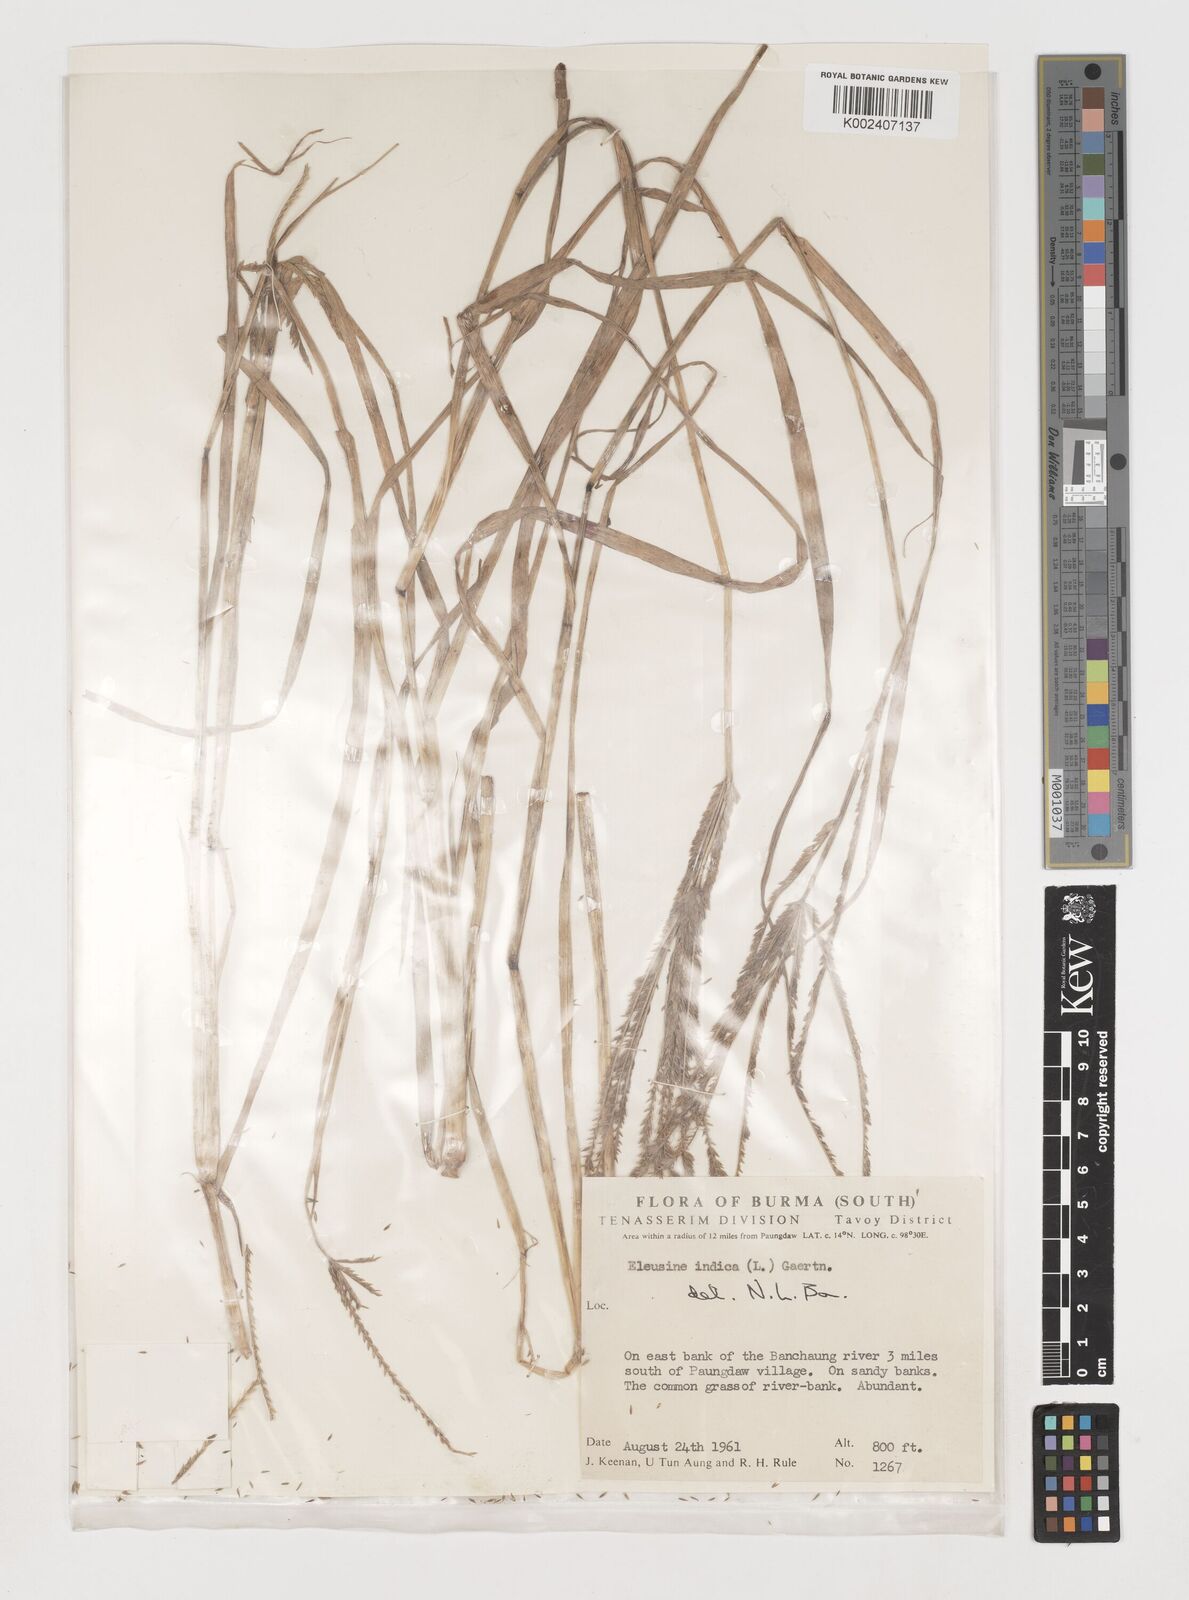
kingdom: Plantae
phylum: Tracheophyta
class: Liliopsida
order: Poales
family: Poaceae
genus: Eleusine
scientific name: Eleusine indica
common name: Yard-grass
